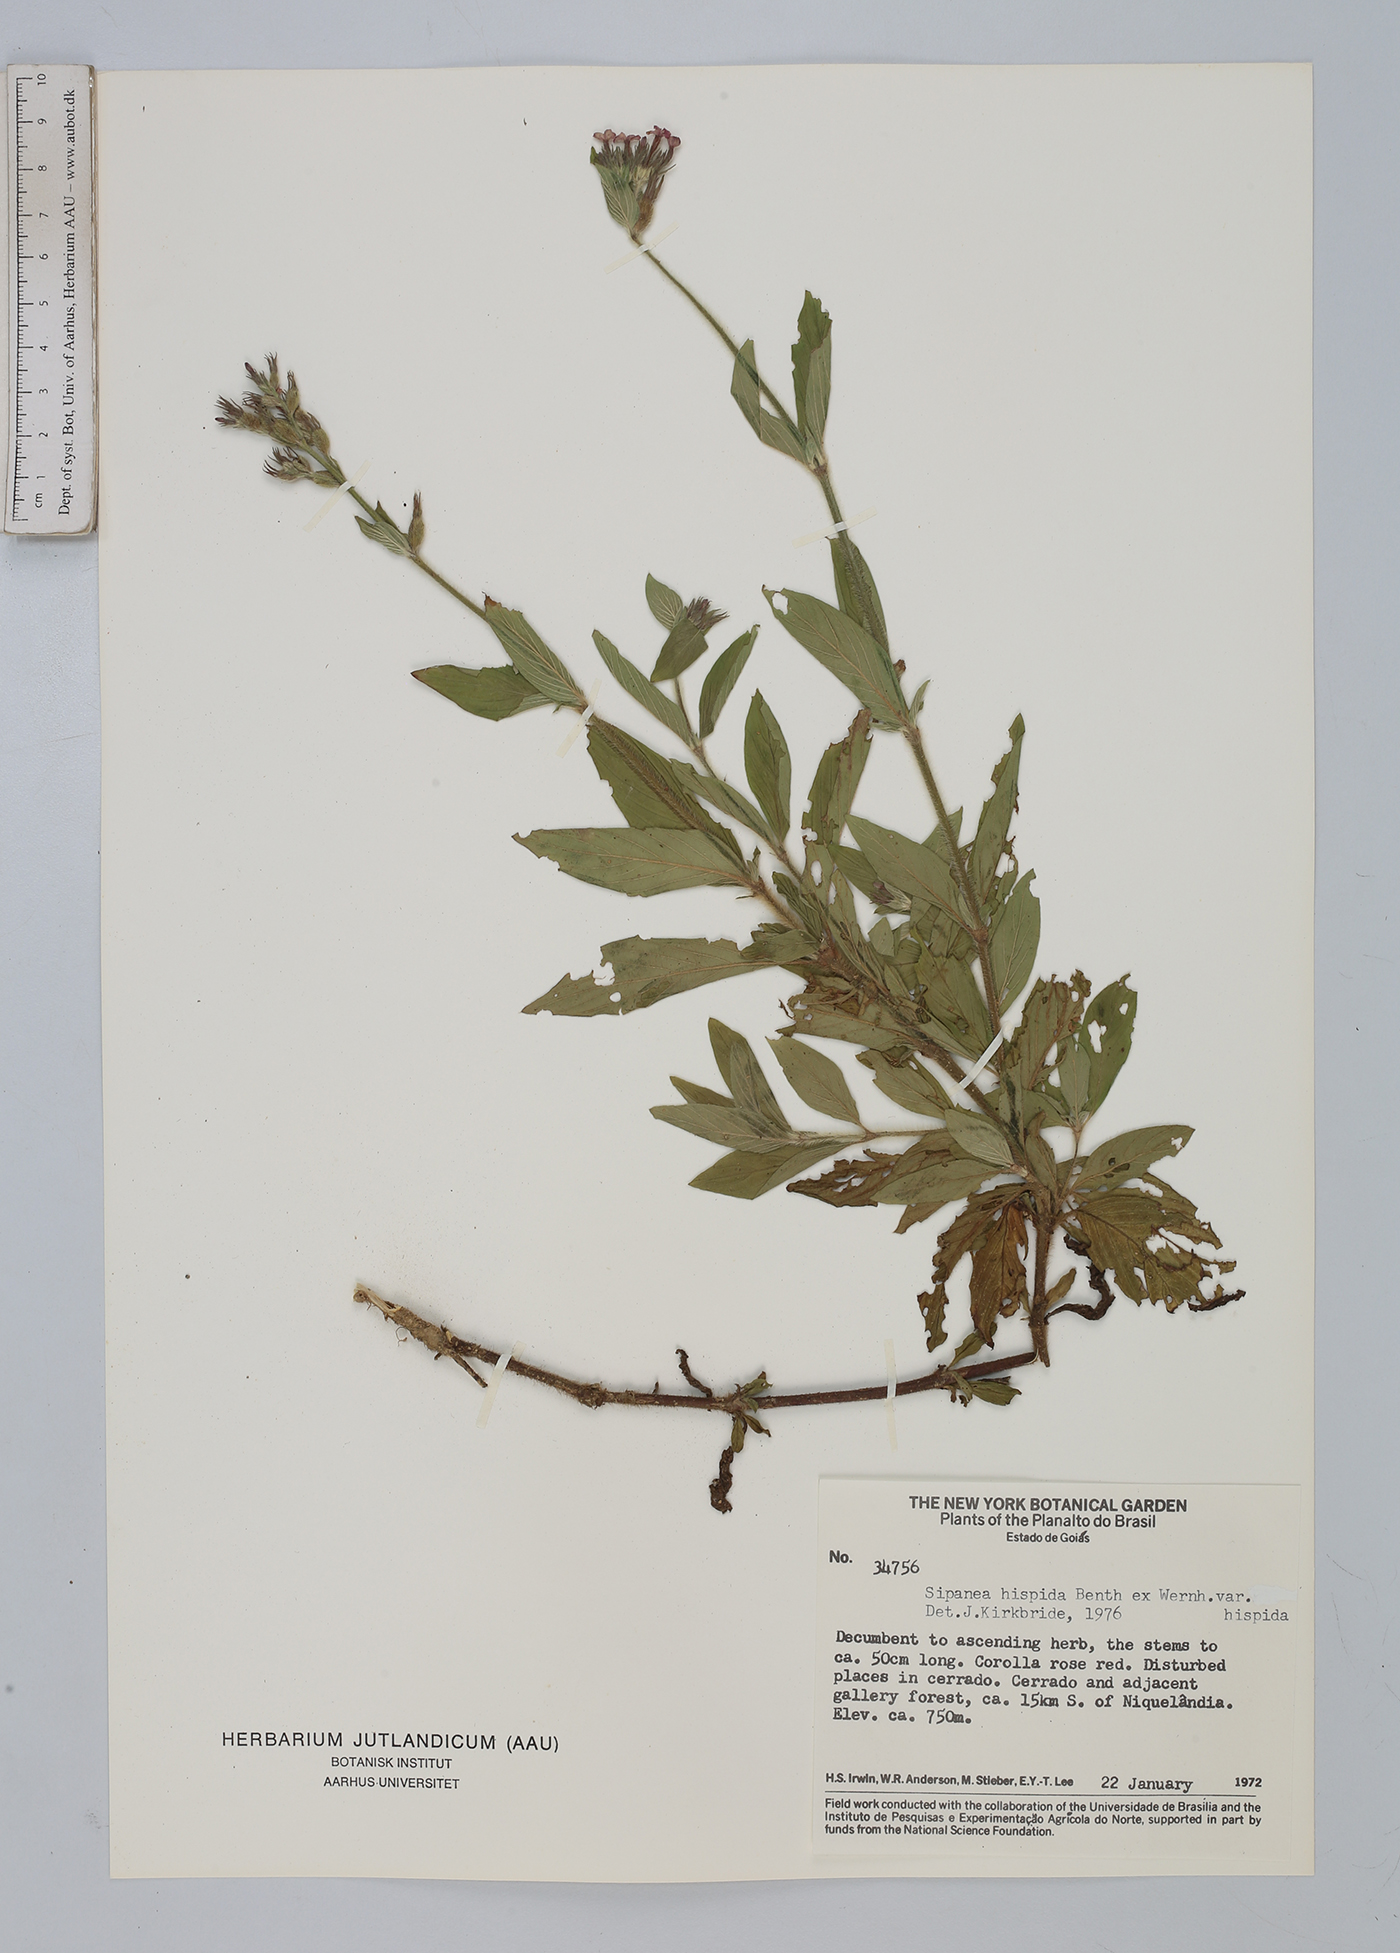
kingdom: Plantae
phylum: Tracheophyta
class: Magnoliopsida
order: Gentianales
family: Rubiaceae
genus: Sipanea
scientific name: Sipanea hispida
